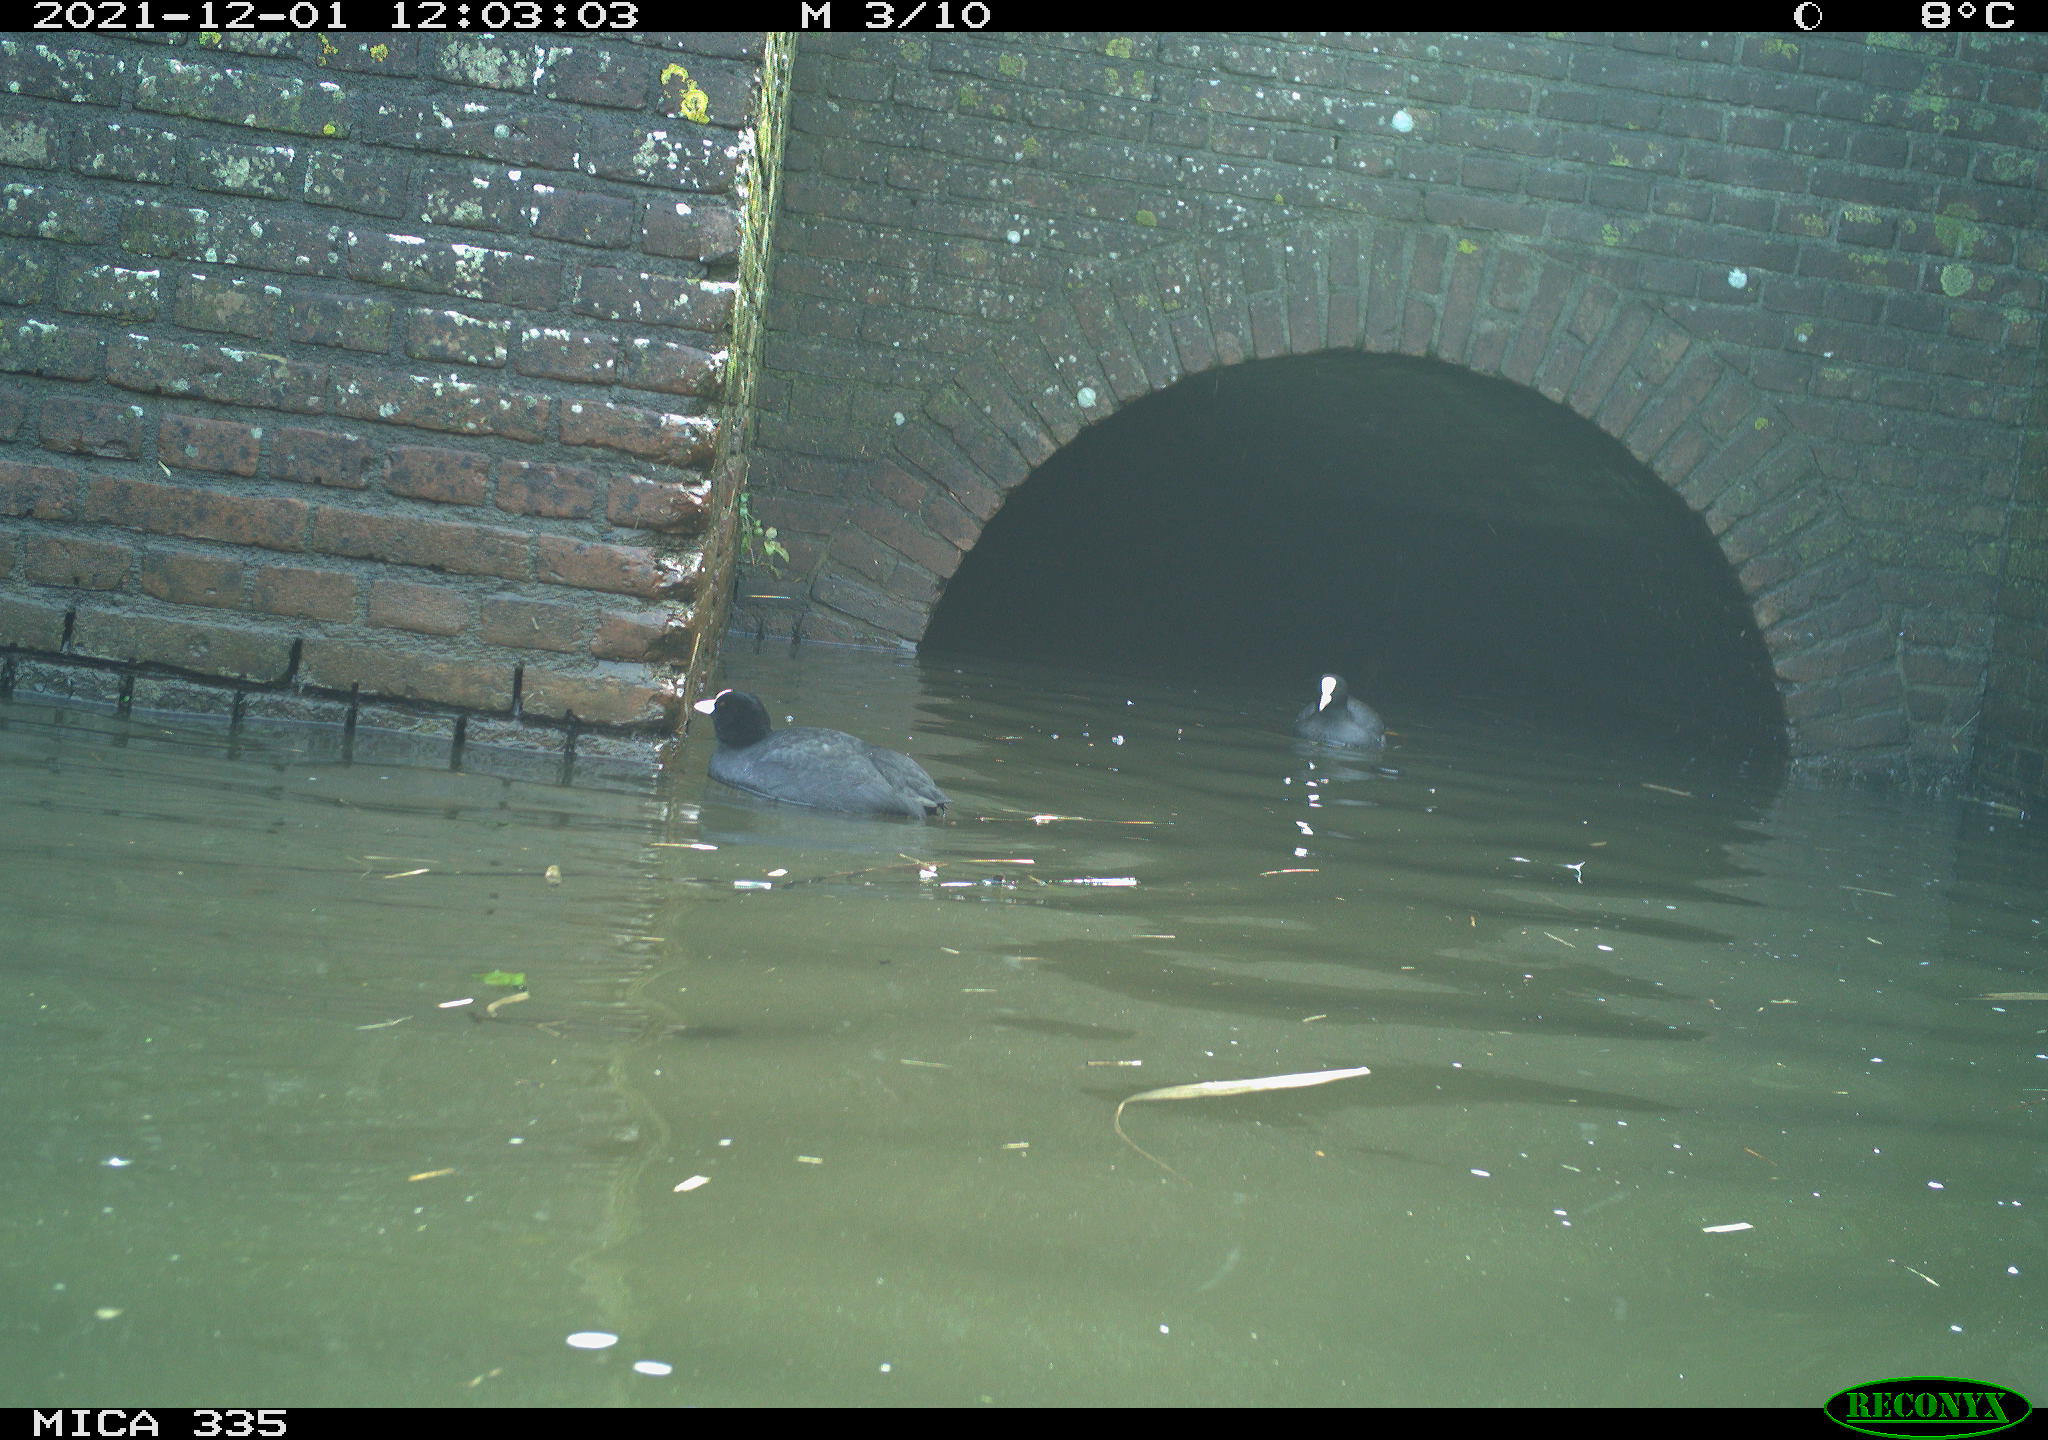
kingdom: Animalia
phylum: Chordata
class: Aves
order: Gruiformes
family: Rallidae
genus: Fulica
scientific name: Fulica atra
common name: Eurasian coot
